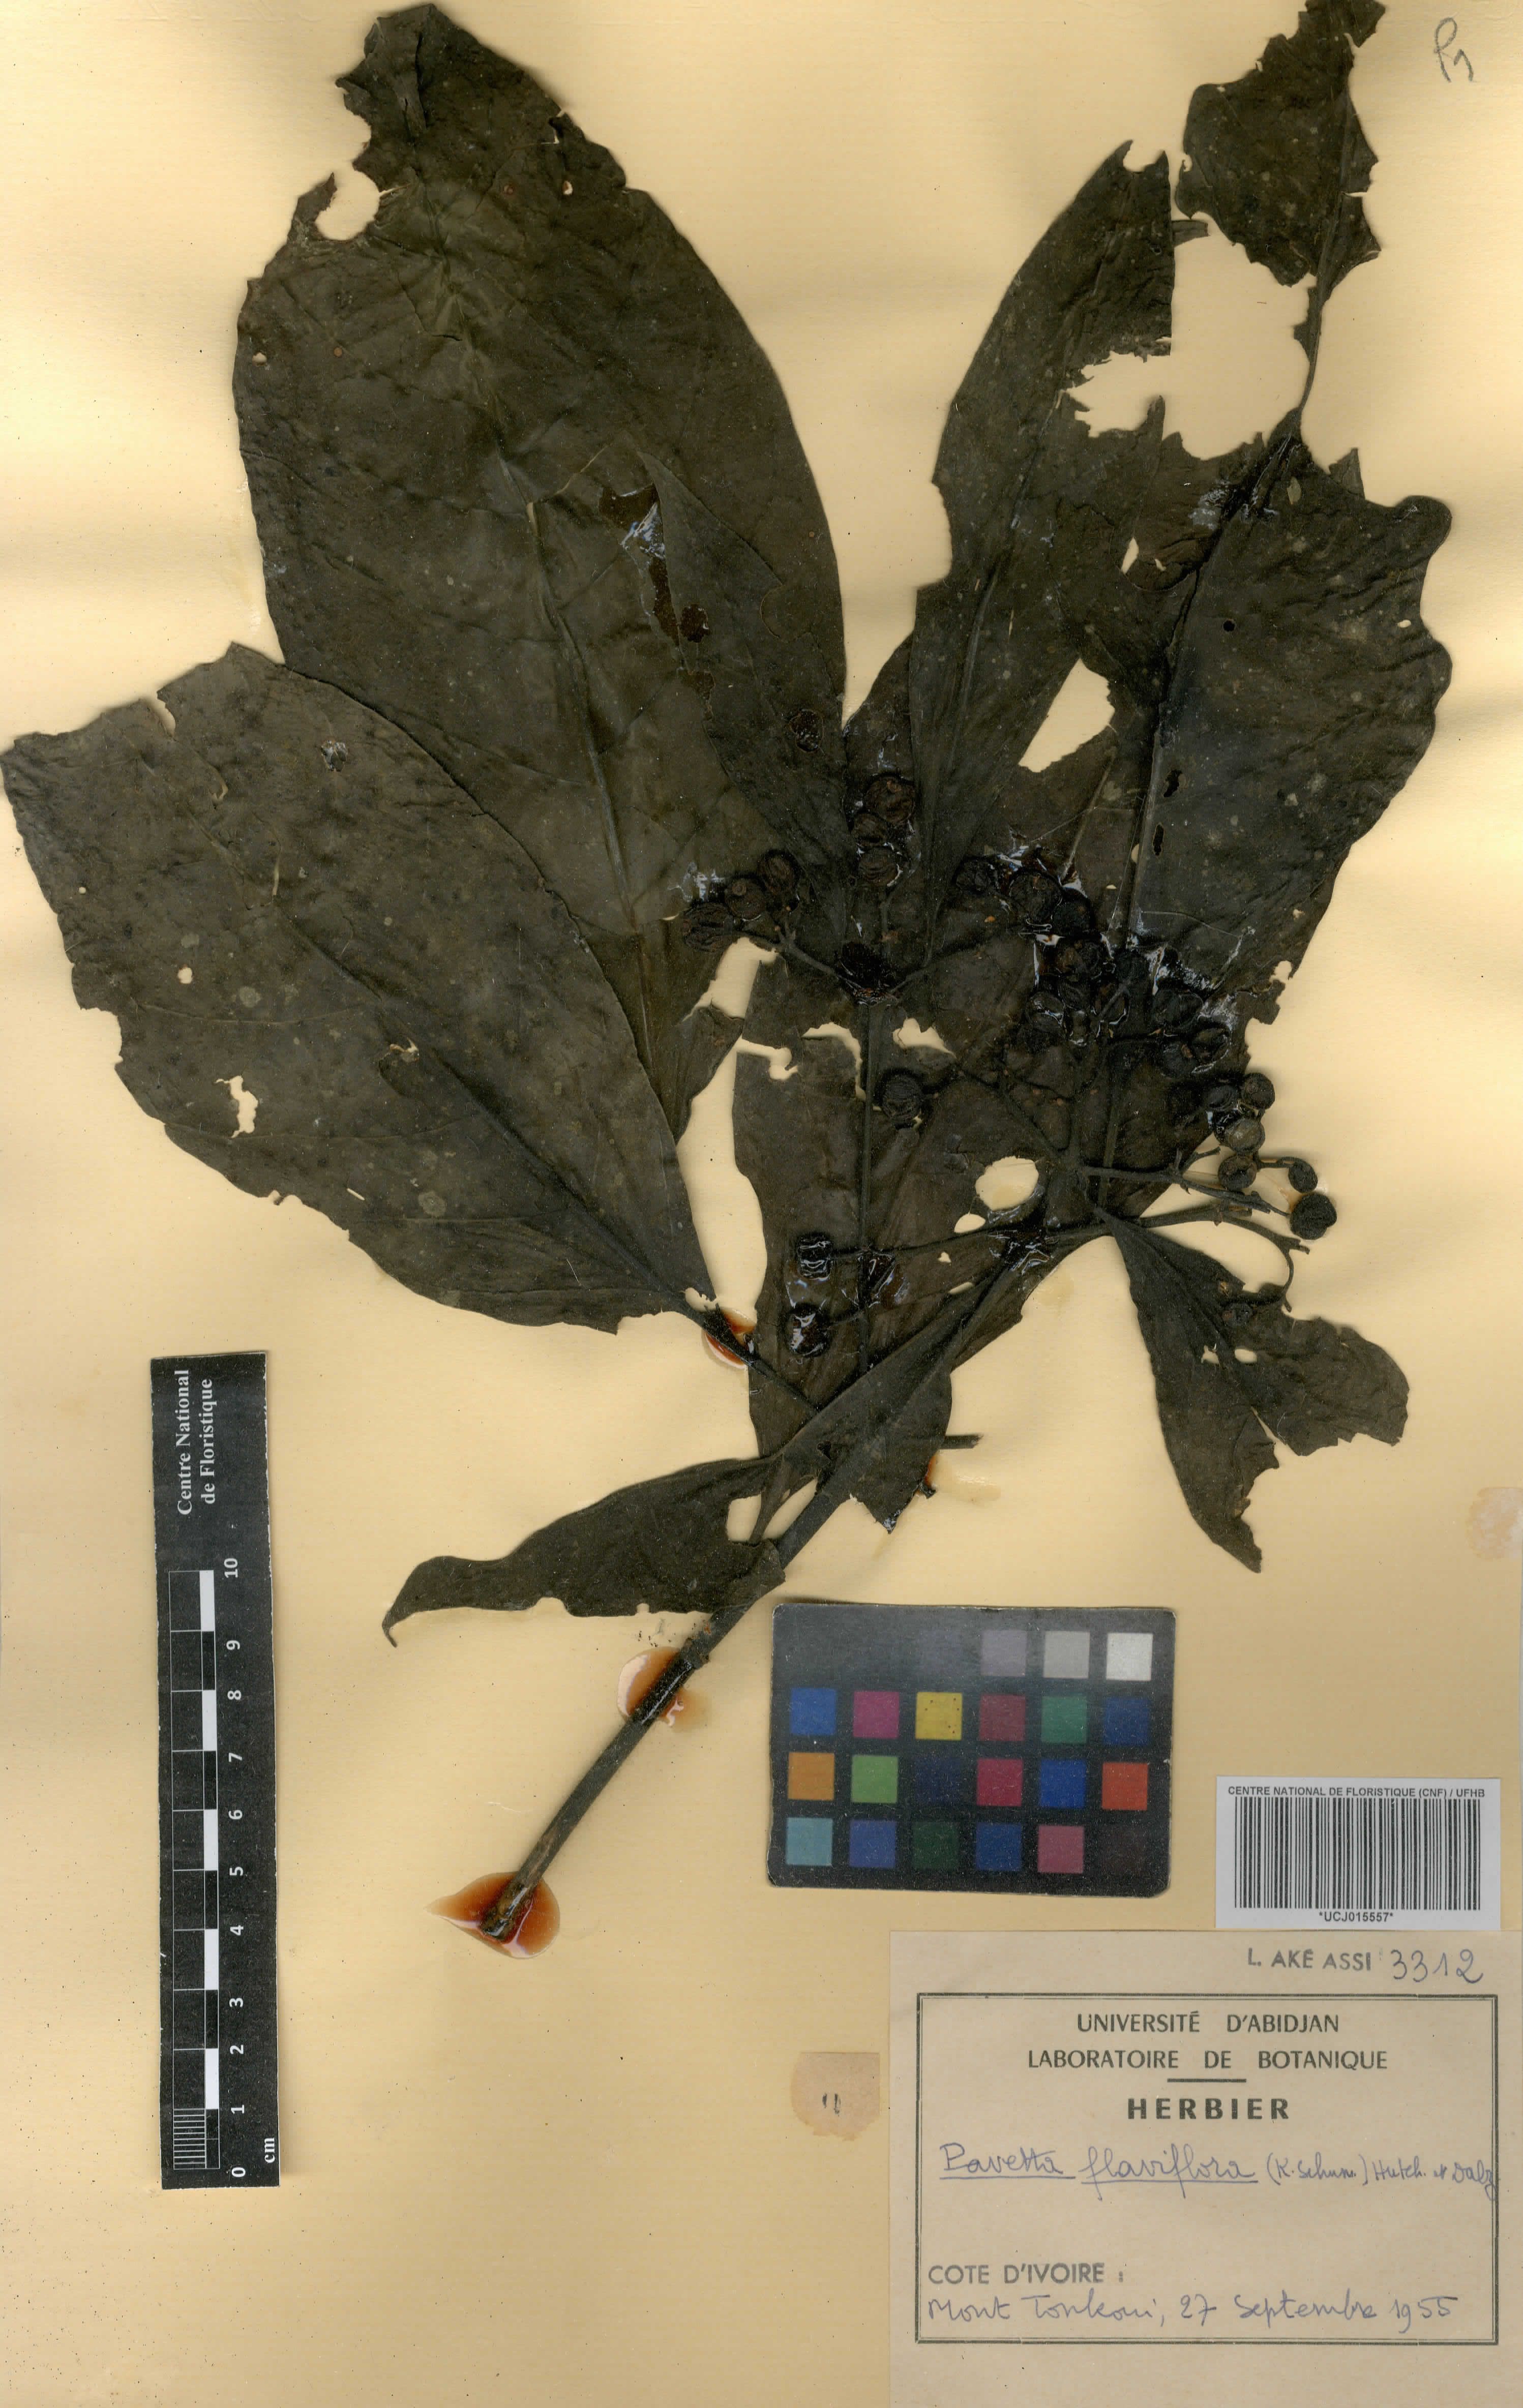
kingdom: Plantae
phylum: Tracheophyta
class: Magnoliopsida
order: Gentianales
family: Rubiaceae
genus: Pavetta
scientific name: Pavetta brachycalyx
